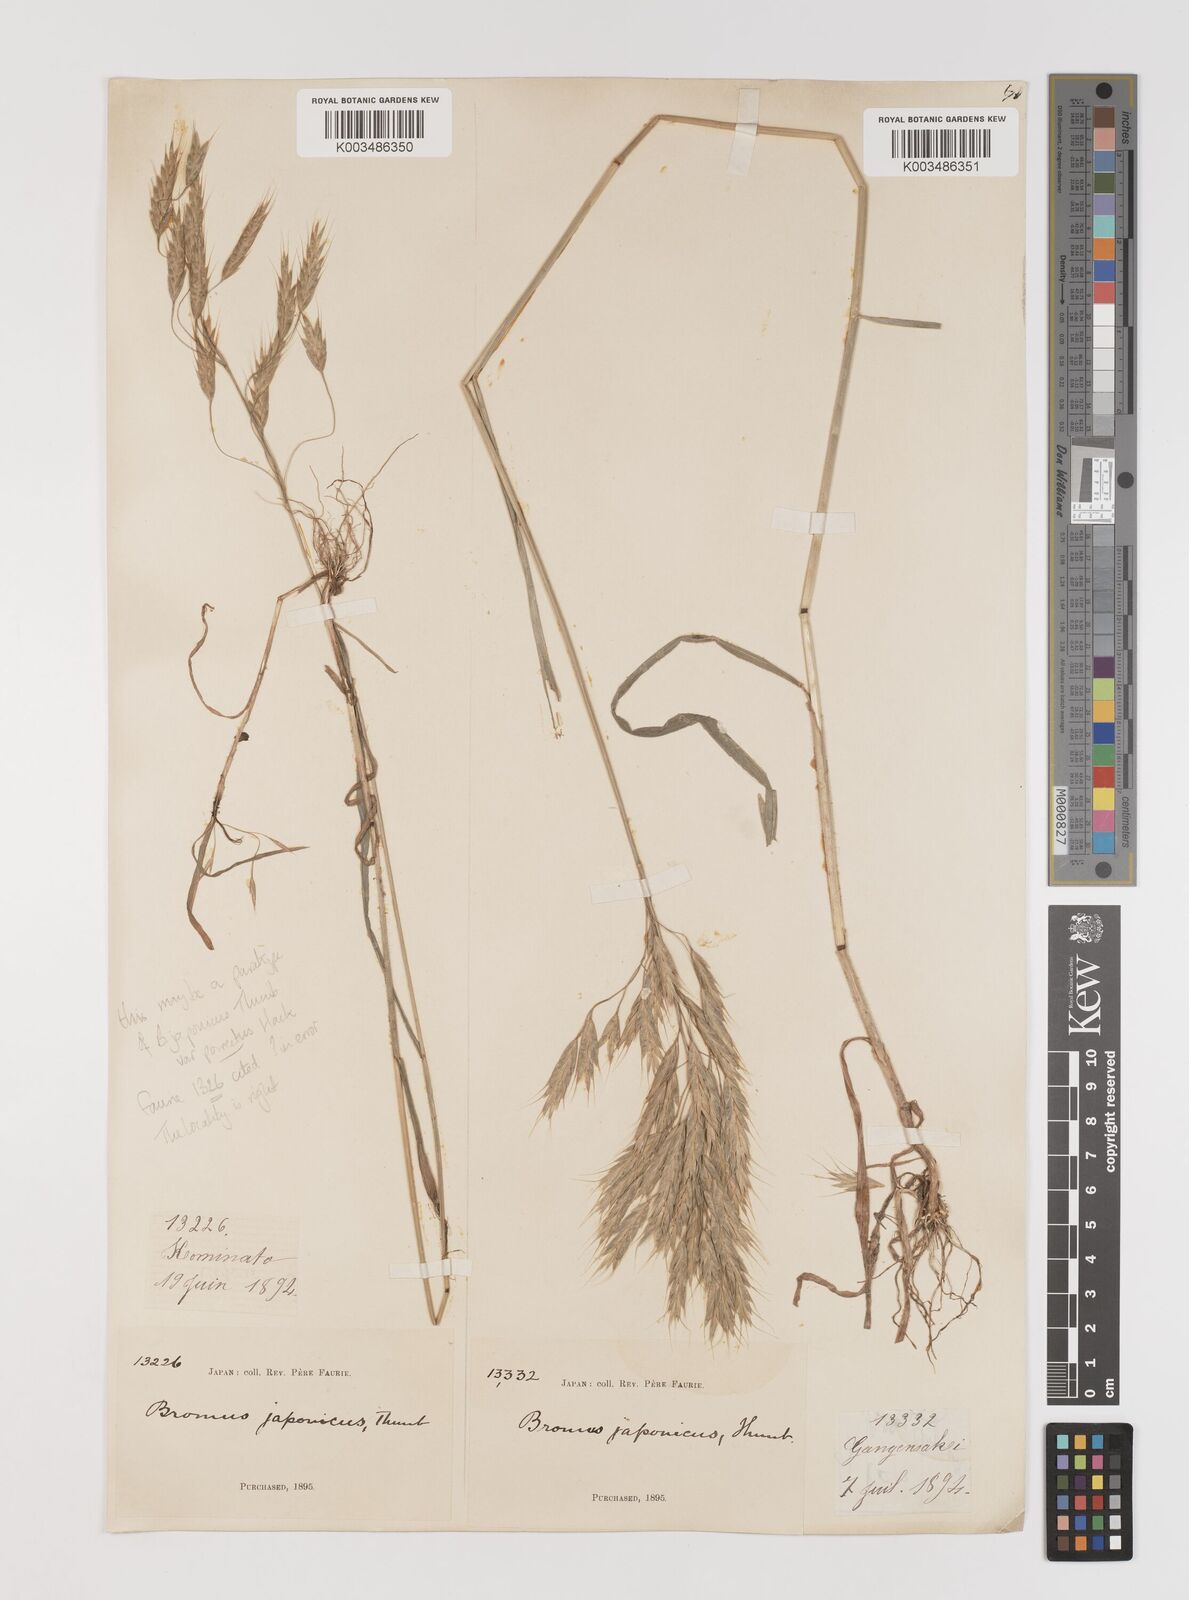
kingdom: Plantae
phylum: Tracheophyta
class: Liliopsida
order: Poales
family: Poaceae
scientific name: Poaceae
